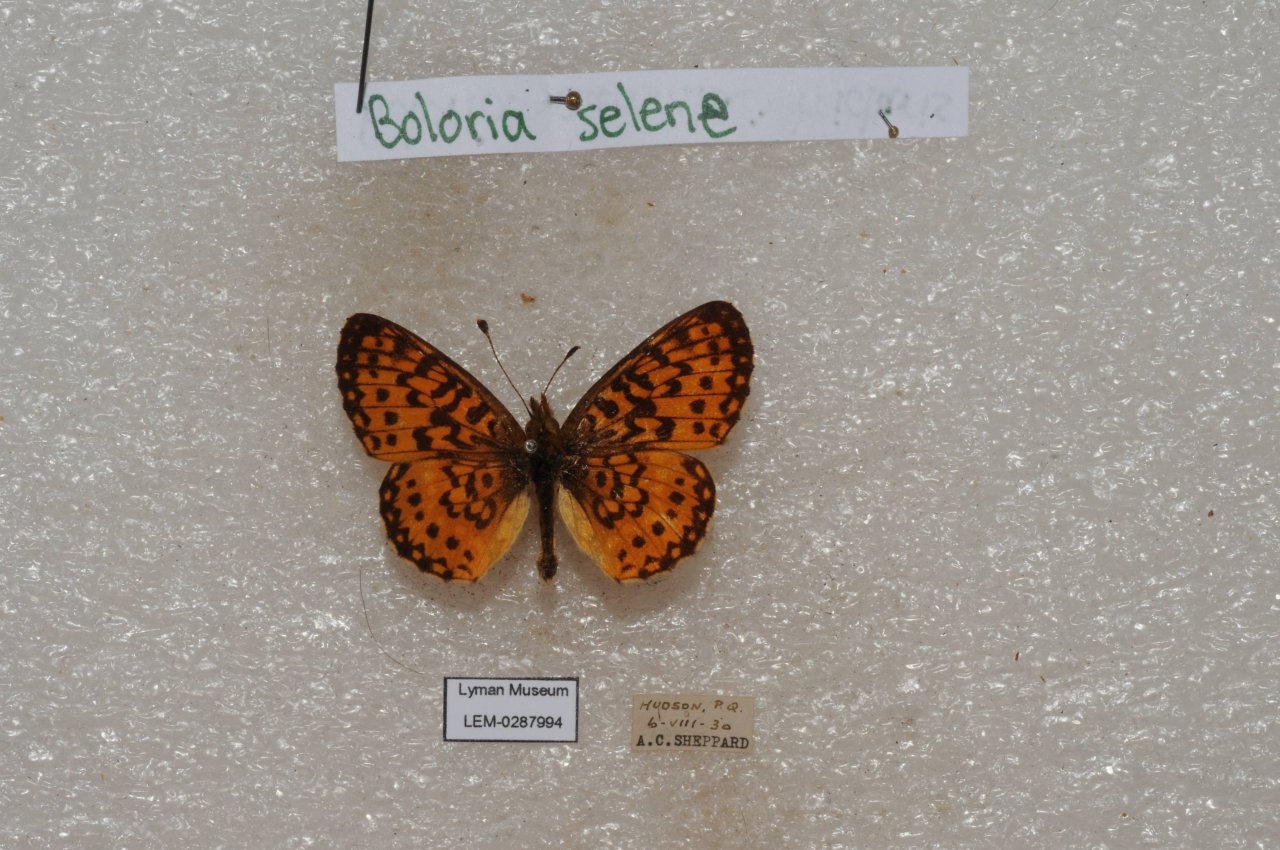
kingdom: Animalia
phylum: Arthropoda
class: Insecta
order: Lepidoptera
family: Nymphalidae
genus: Boloria
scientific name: Boloria selene
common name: Silver-bordered Fritillary
